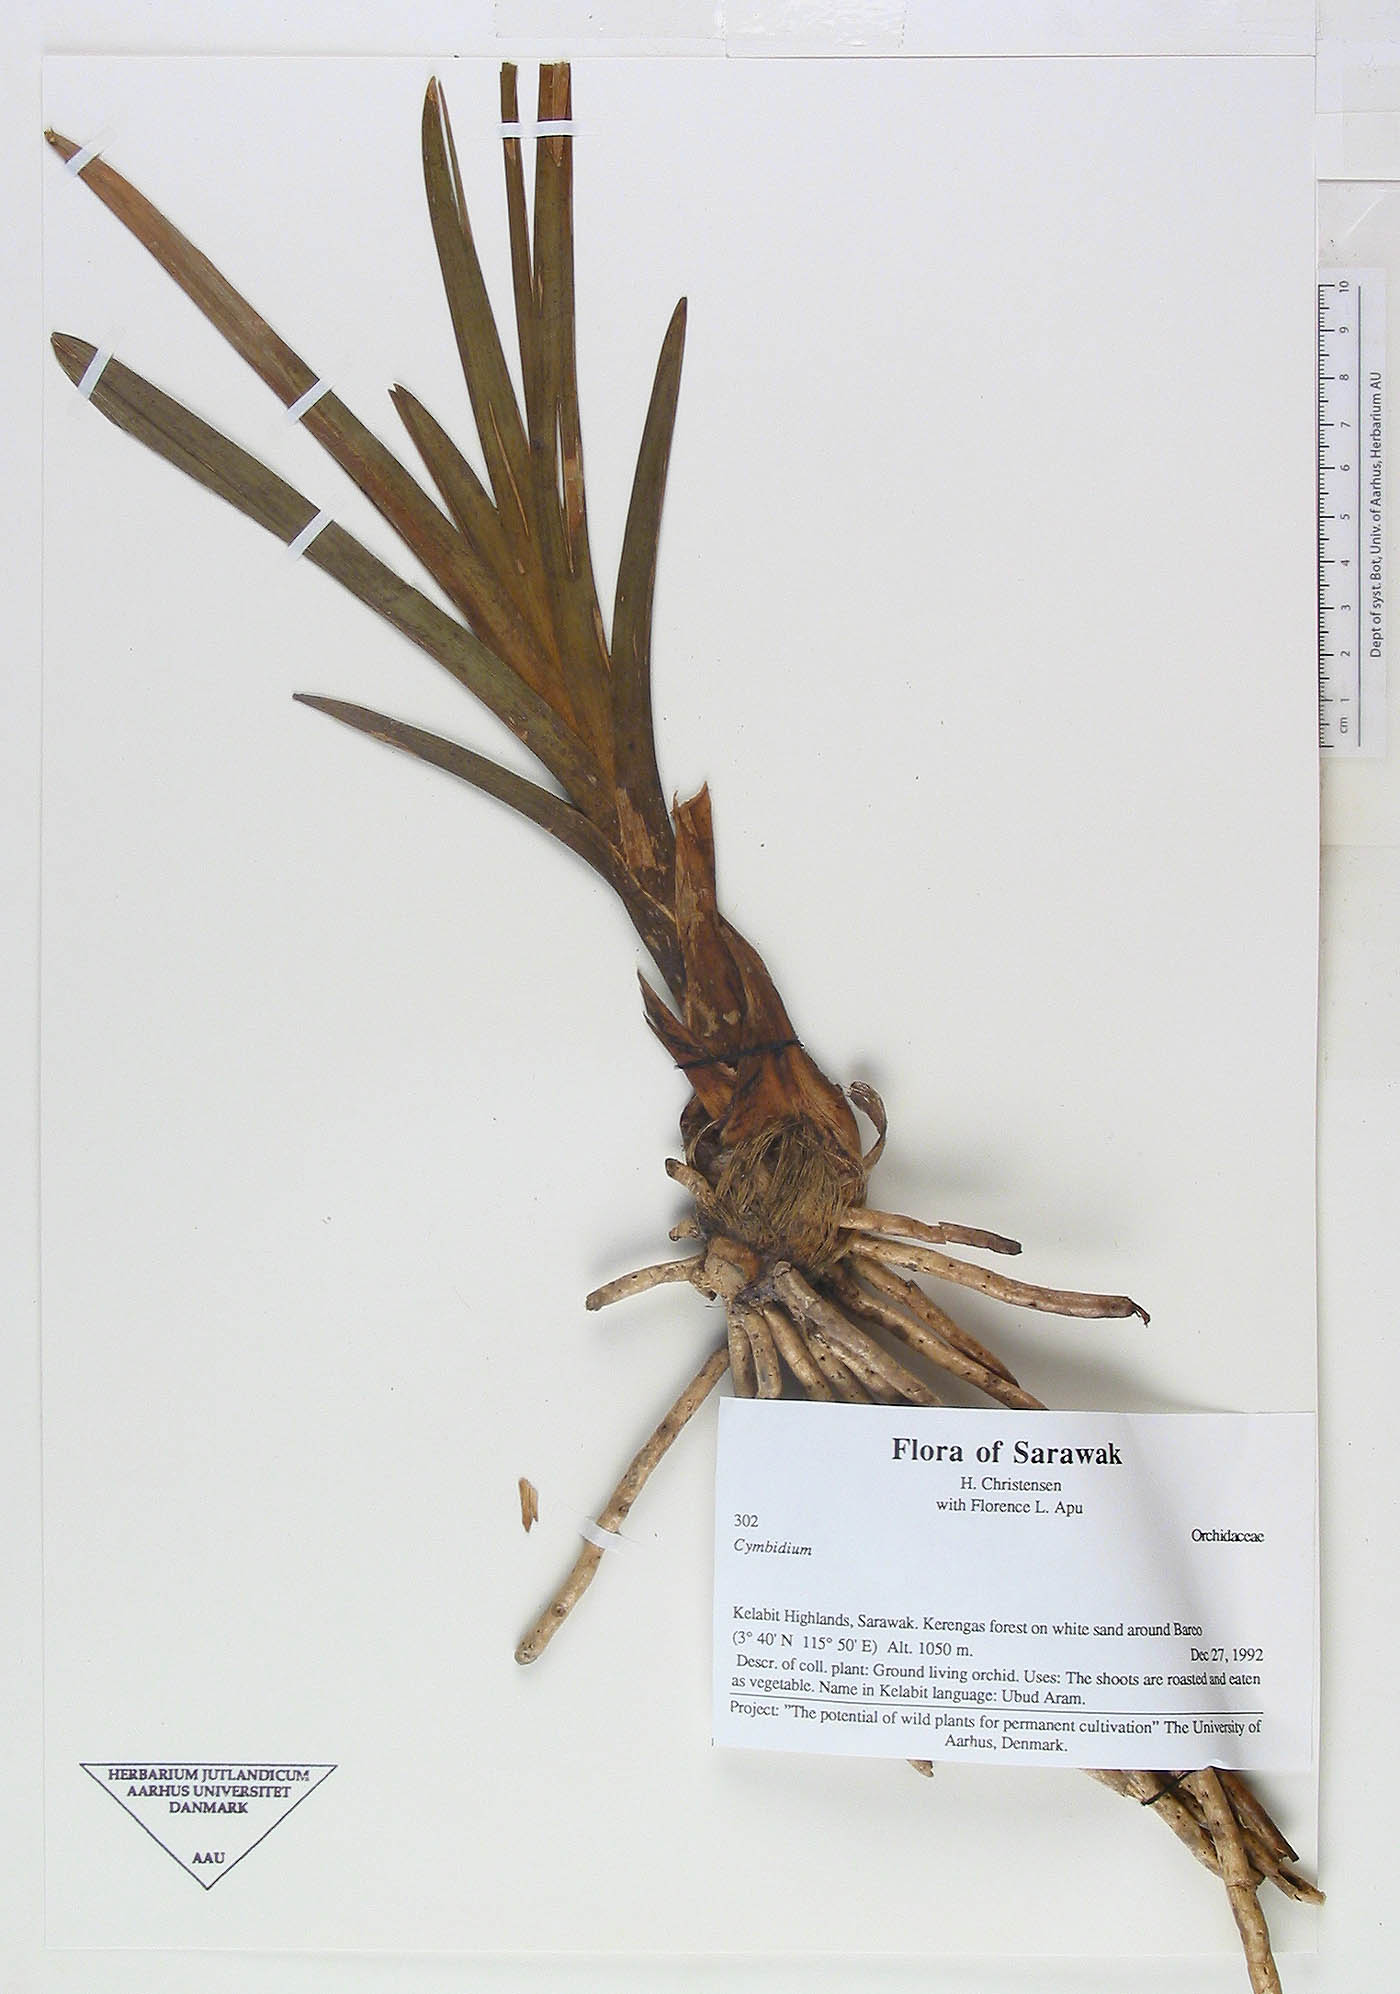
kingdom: Plantae
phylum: Tracheophyta
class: Liliopsida
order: Asparagales
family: Orchidaceae
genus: Cymbidium
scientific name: Cymbidium
